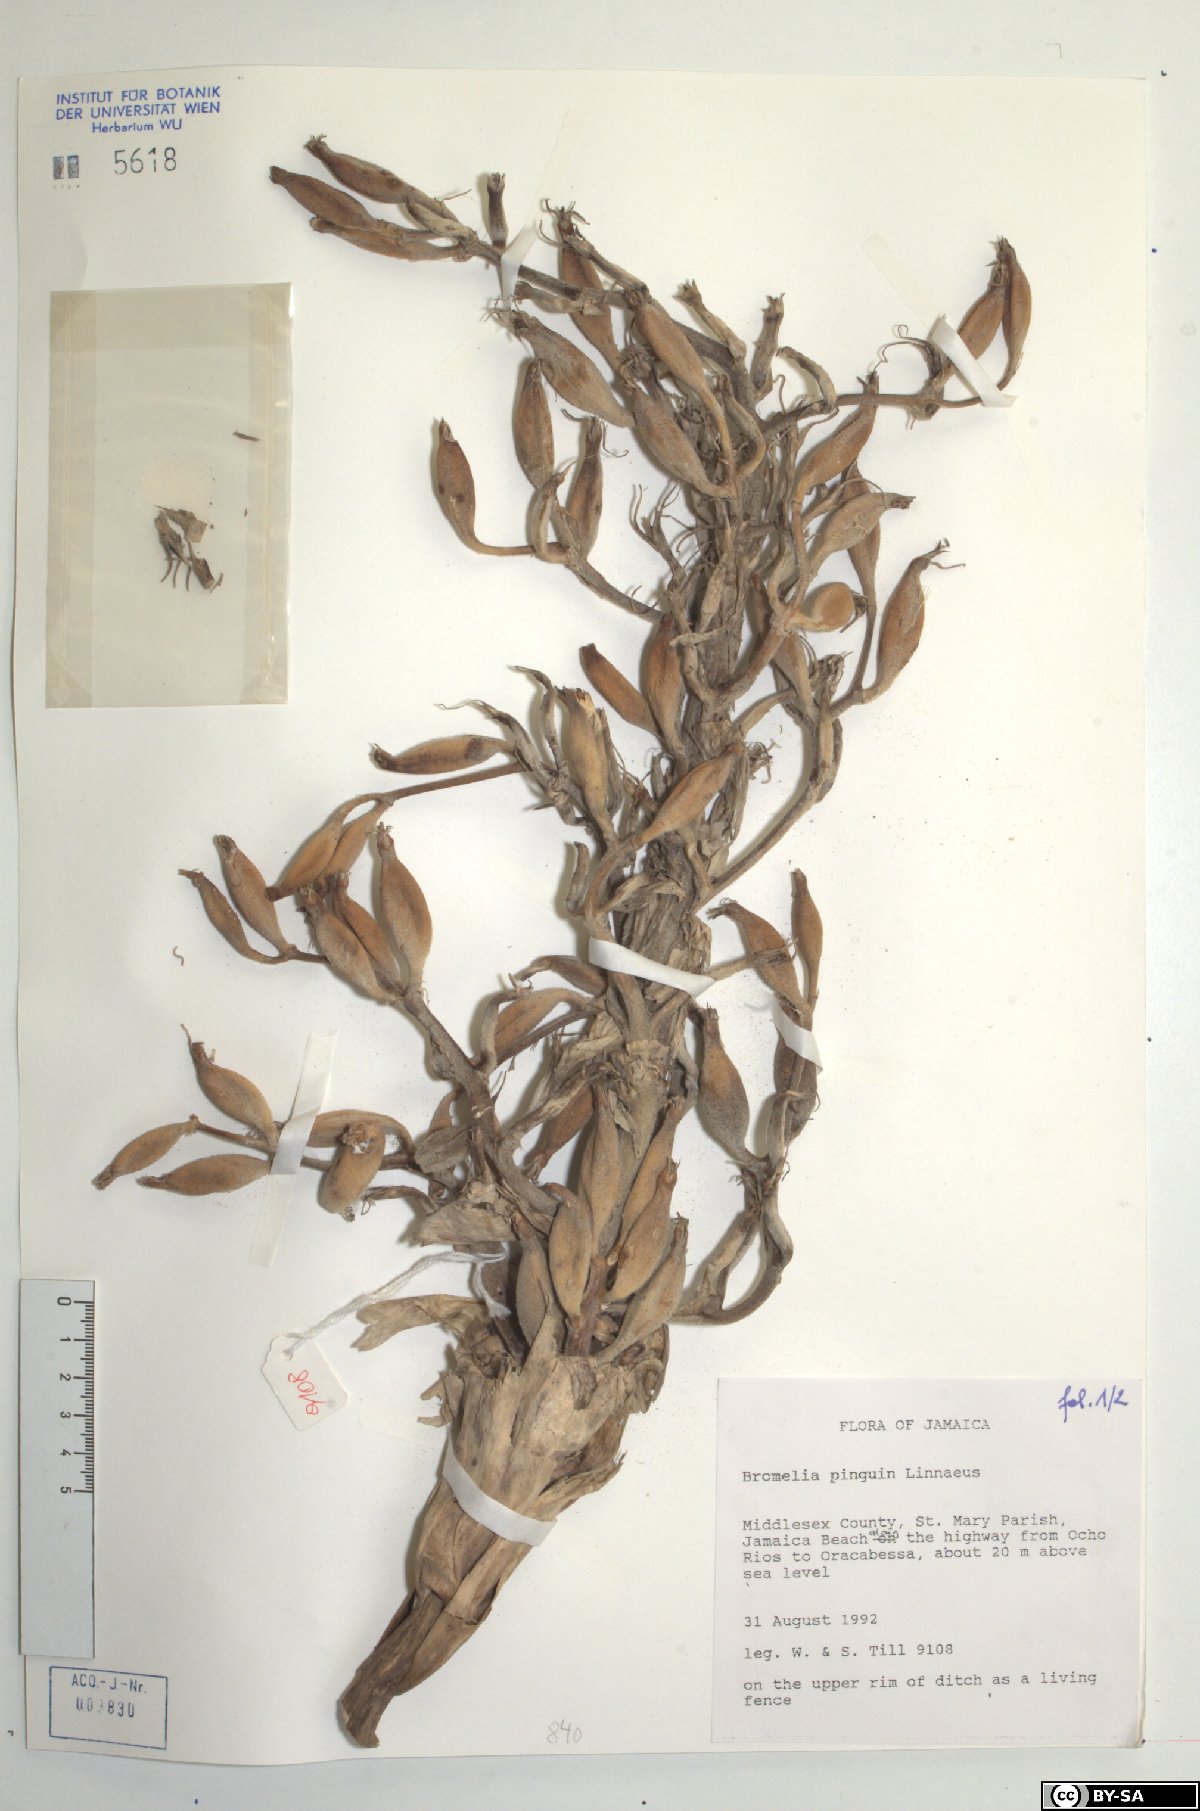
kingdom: Plantae
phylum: Tracheophyta
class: Liliopsida
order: Poales
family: Bromeliaceae
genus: Bromelia
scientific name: Bromelia pinguin
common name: Pinguin
